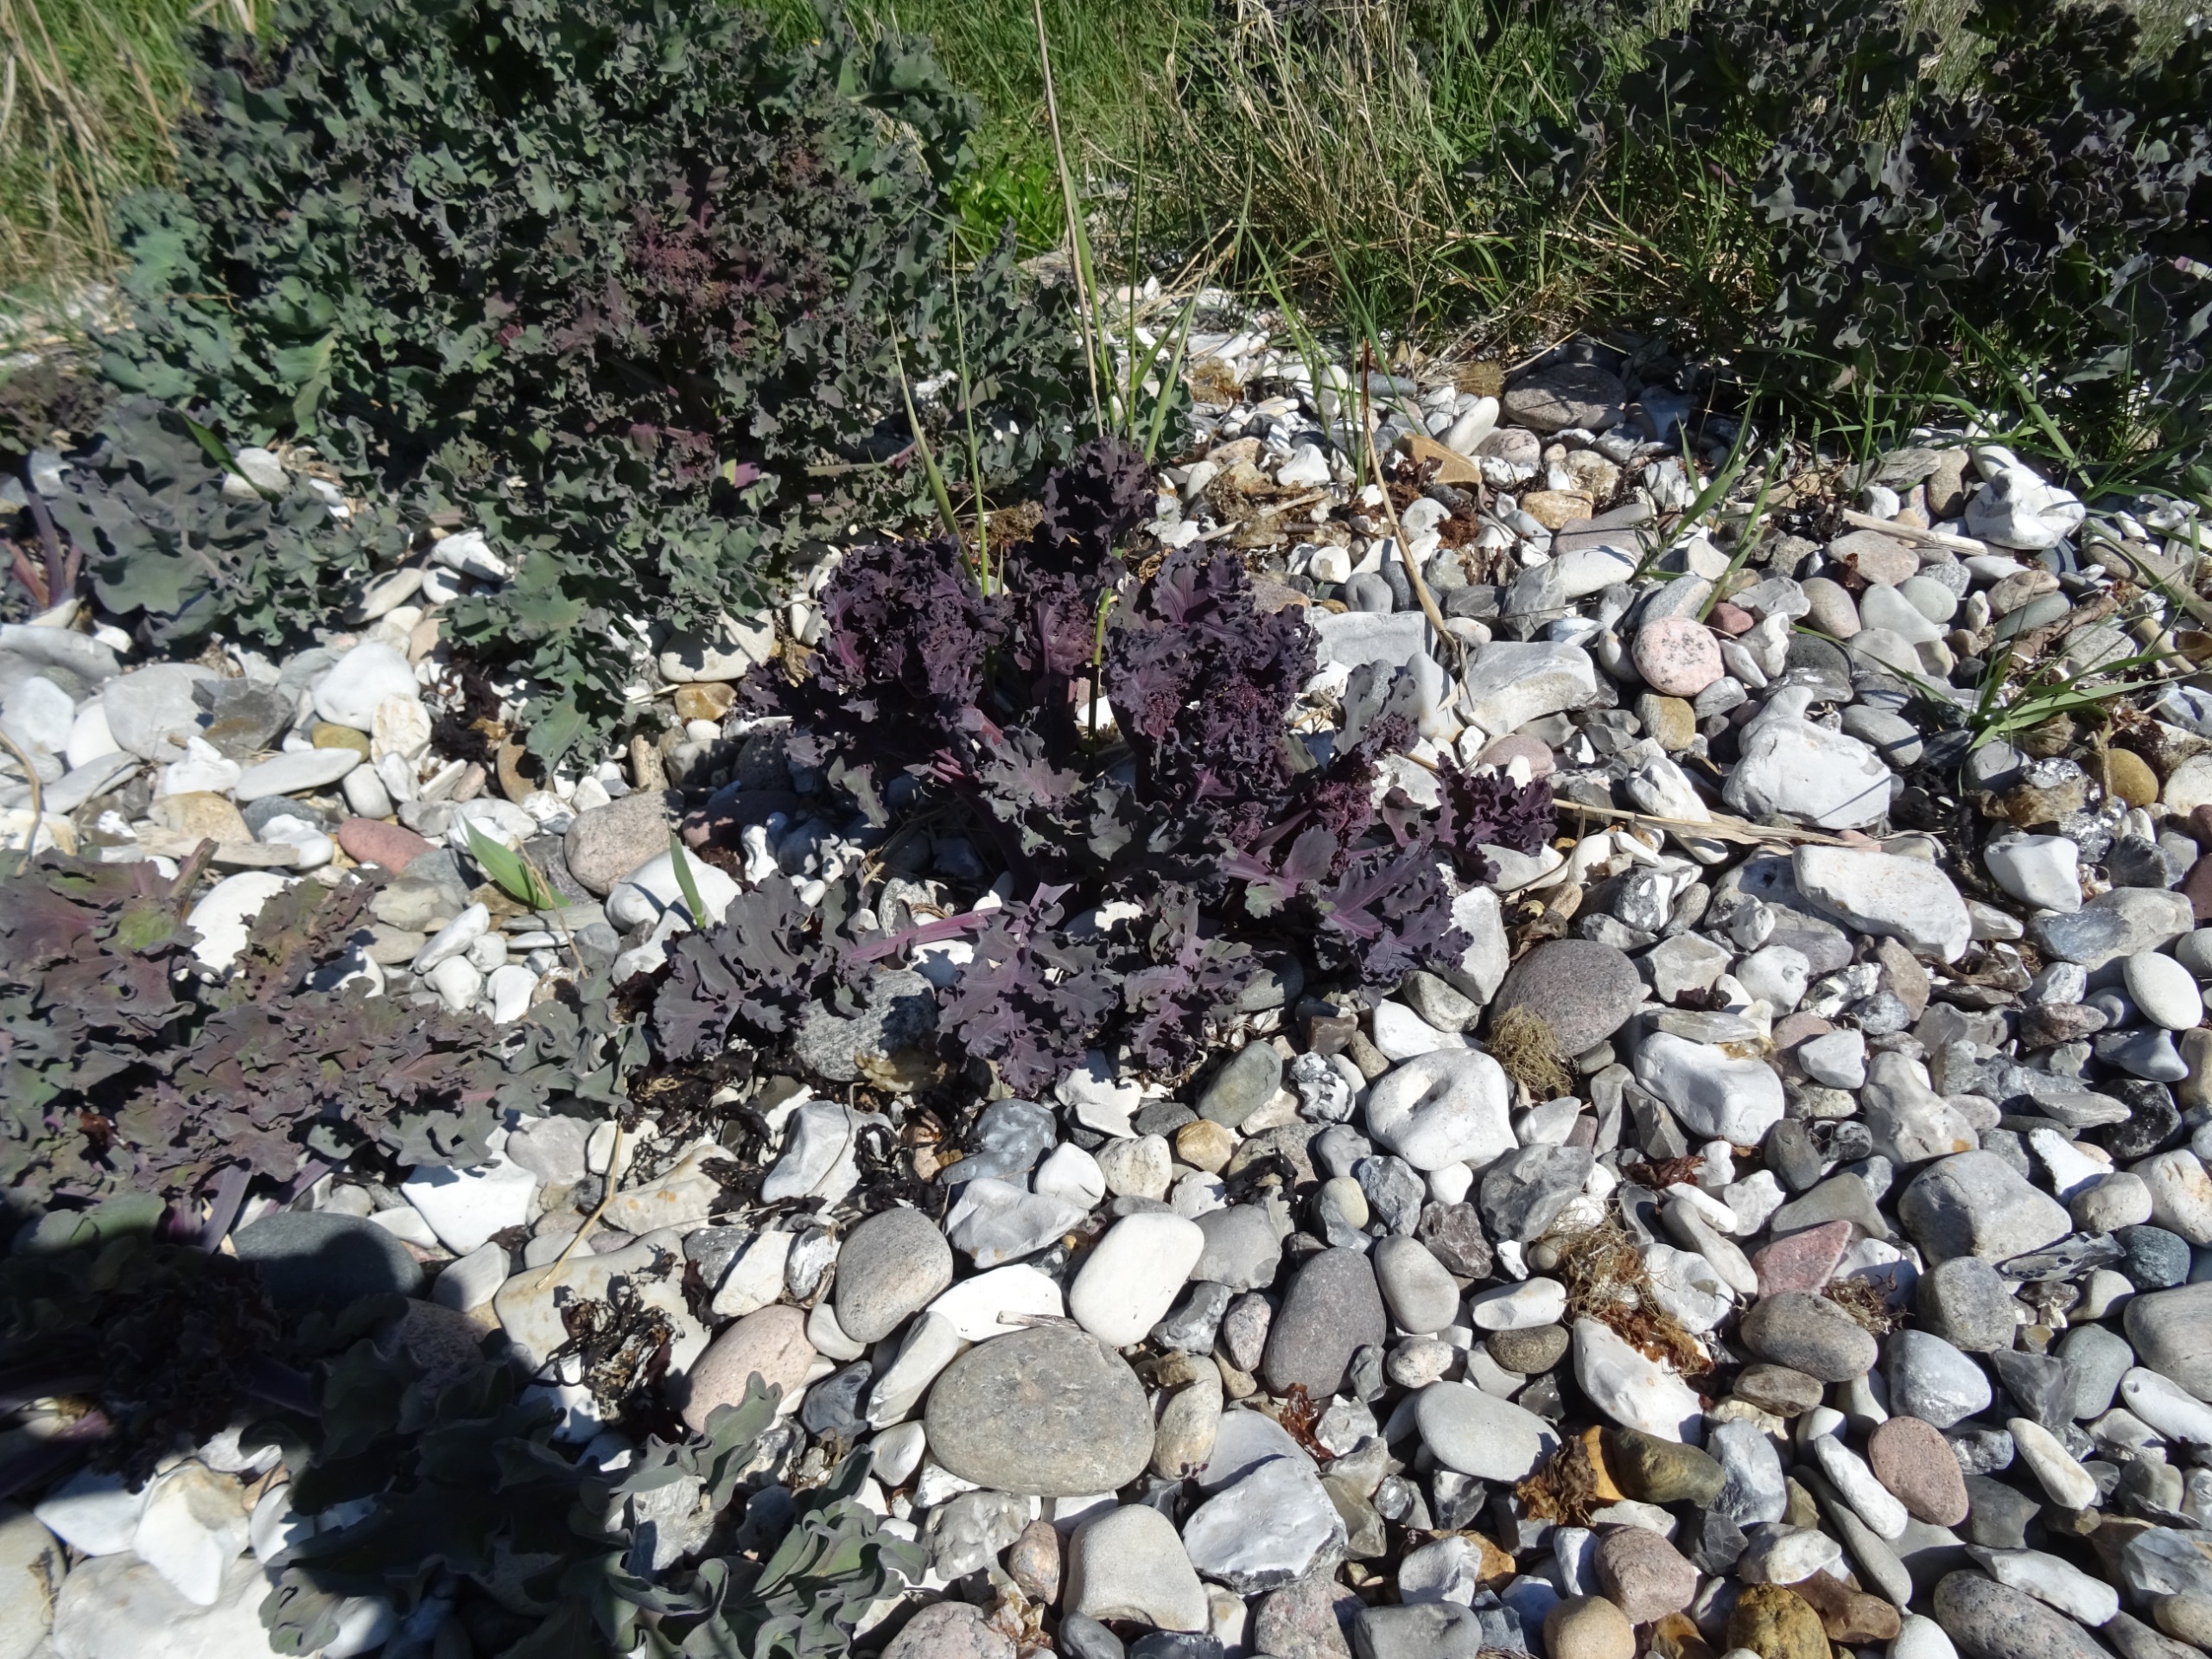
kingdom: Plantae
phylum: Tracheophyta
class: Magnoliopsida
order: Brassicales
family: Brassicaceae
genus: Crambe
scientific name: Crambe maritima
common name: Strandkål
